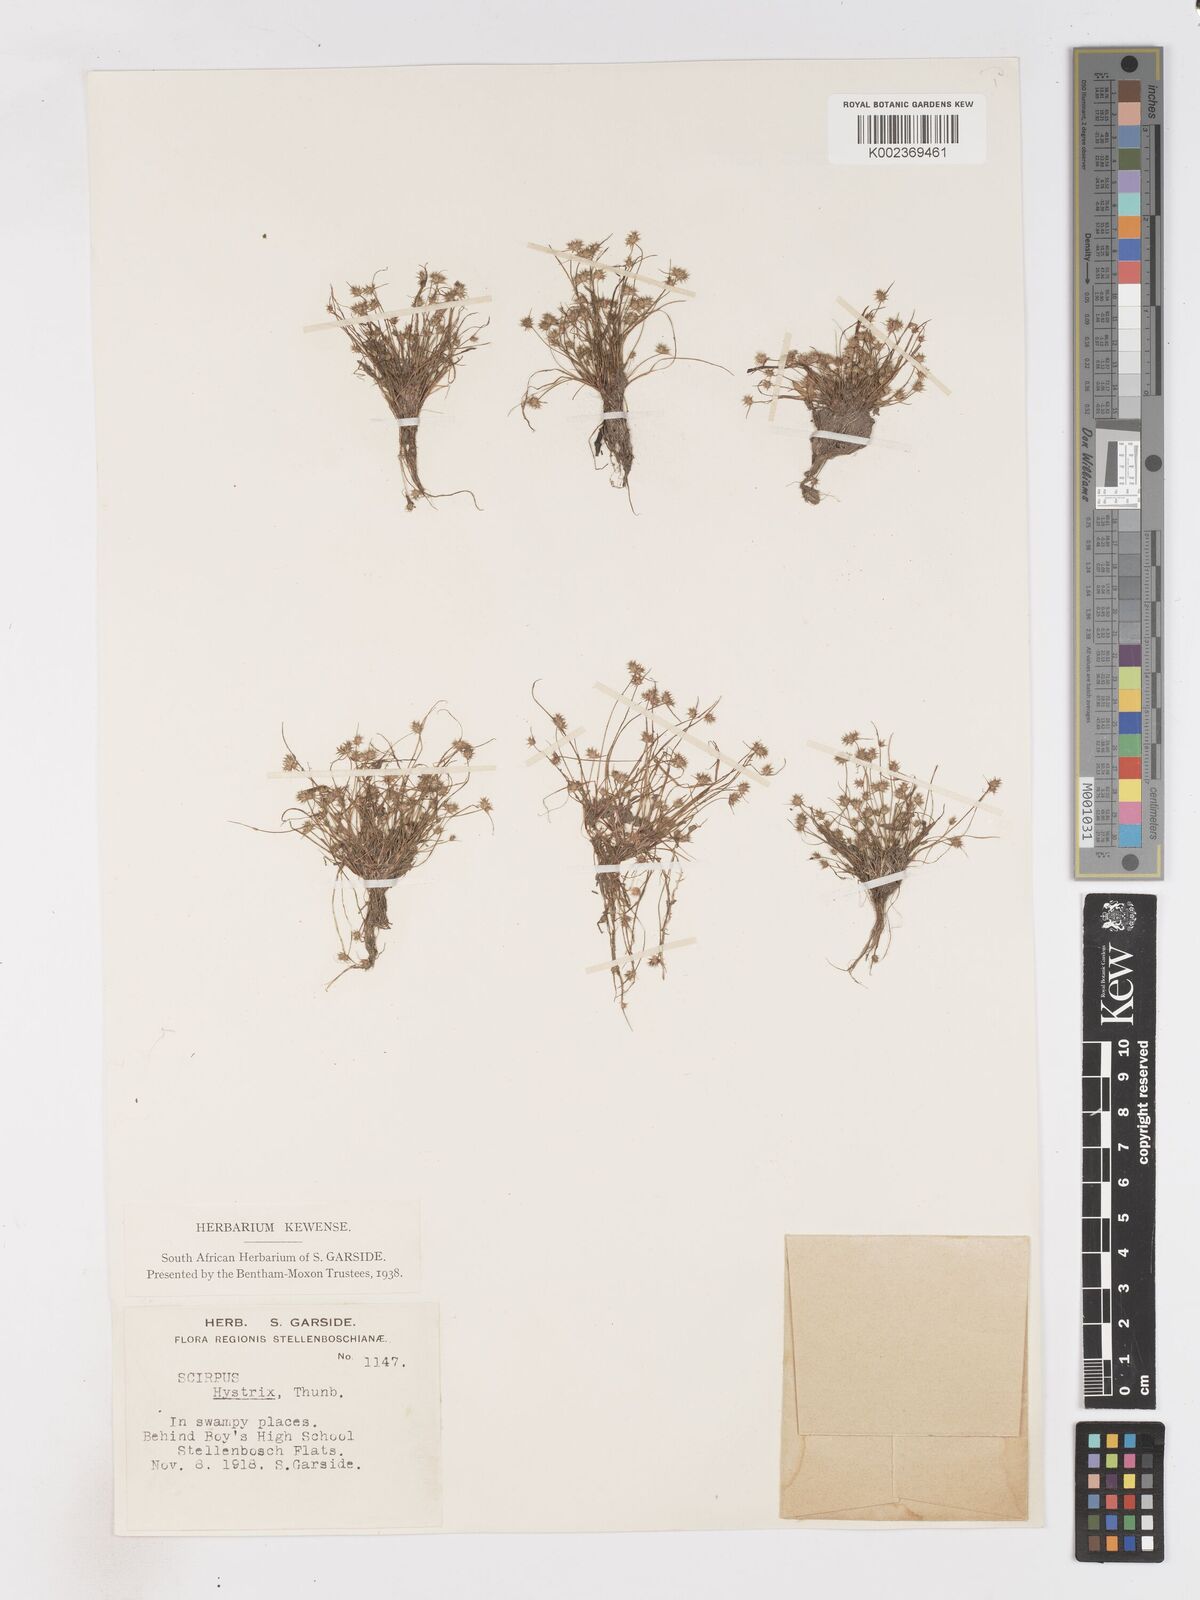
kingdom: Plantae
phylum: Tracheophyta
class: Liliopsida
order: Poales
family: Cyperaceae
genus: Isolepis
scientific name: Isolepis hystrix
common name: Bottlebrush bulrush
